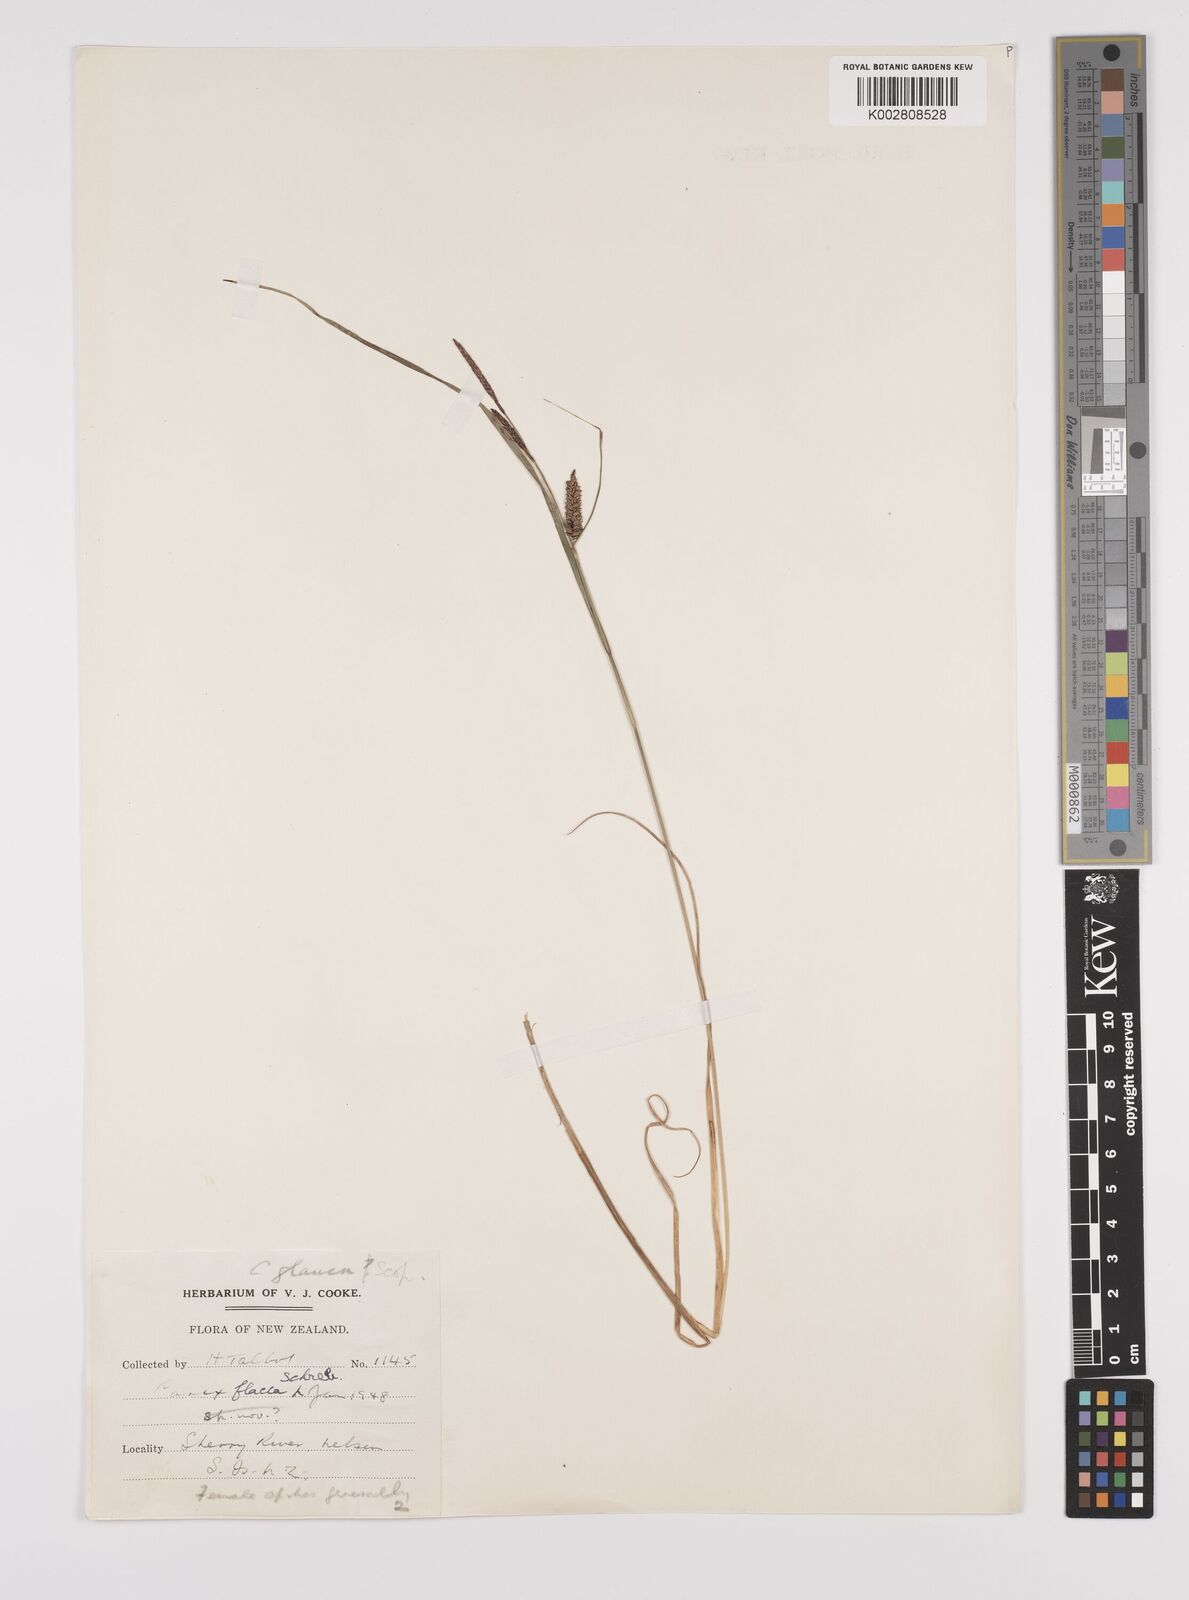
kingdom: Plantae
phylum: Tracheophyta
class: Liliopsida
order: Poales
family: Cyperaceae
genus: Carex
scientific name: Carex flacca
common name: Glaucous sedge
